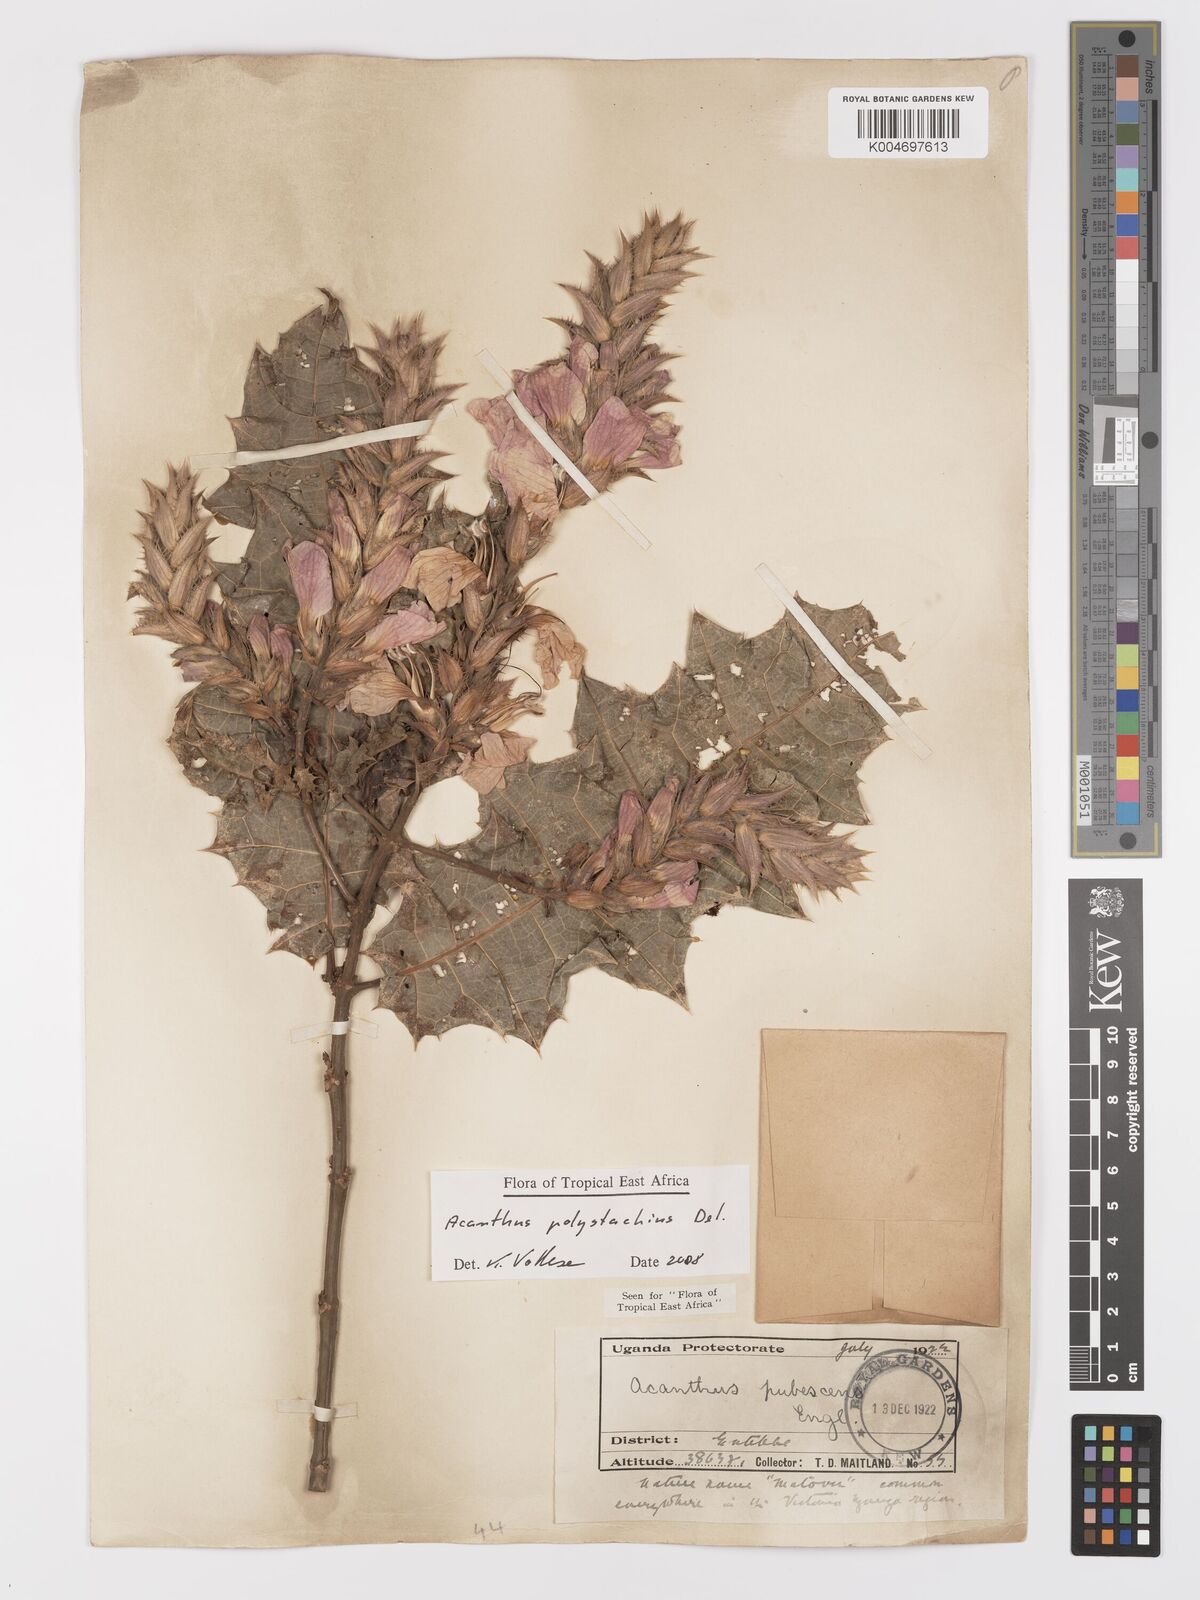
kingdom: Plantae
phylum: Tracheophyta
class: Magnoliopsida
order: Lamiales
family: Acanthaceae
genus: Acanthus
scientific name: Acanthus polystachyus
